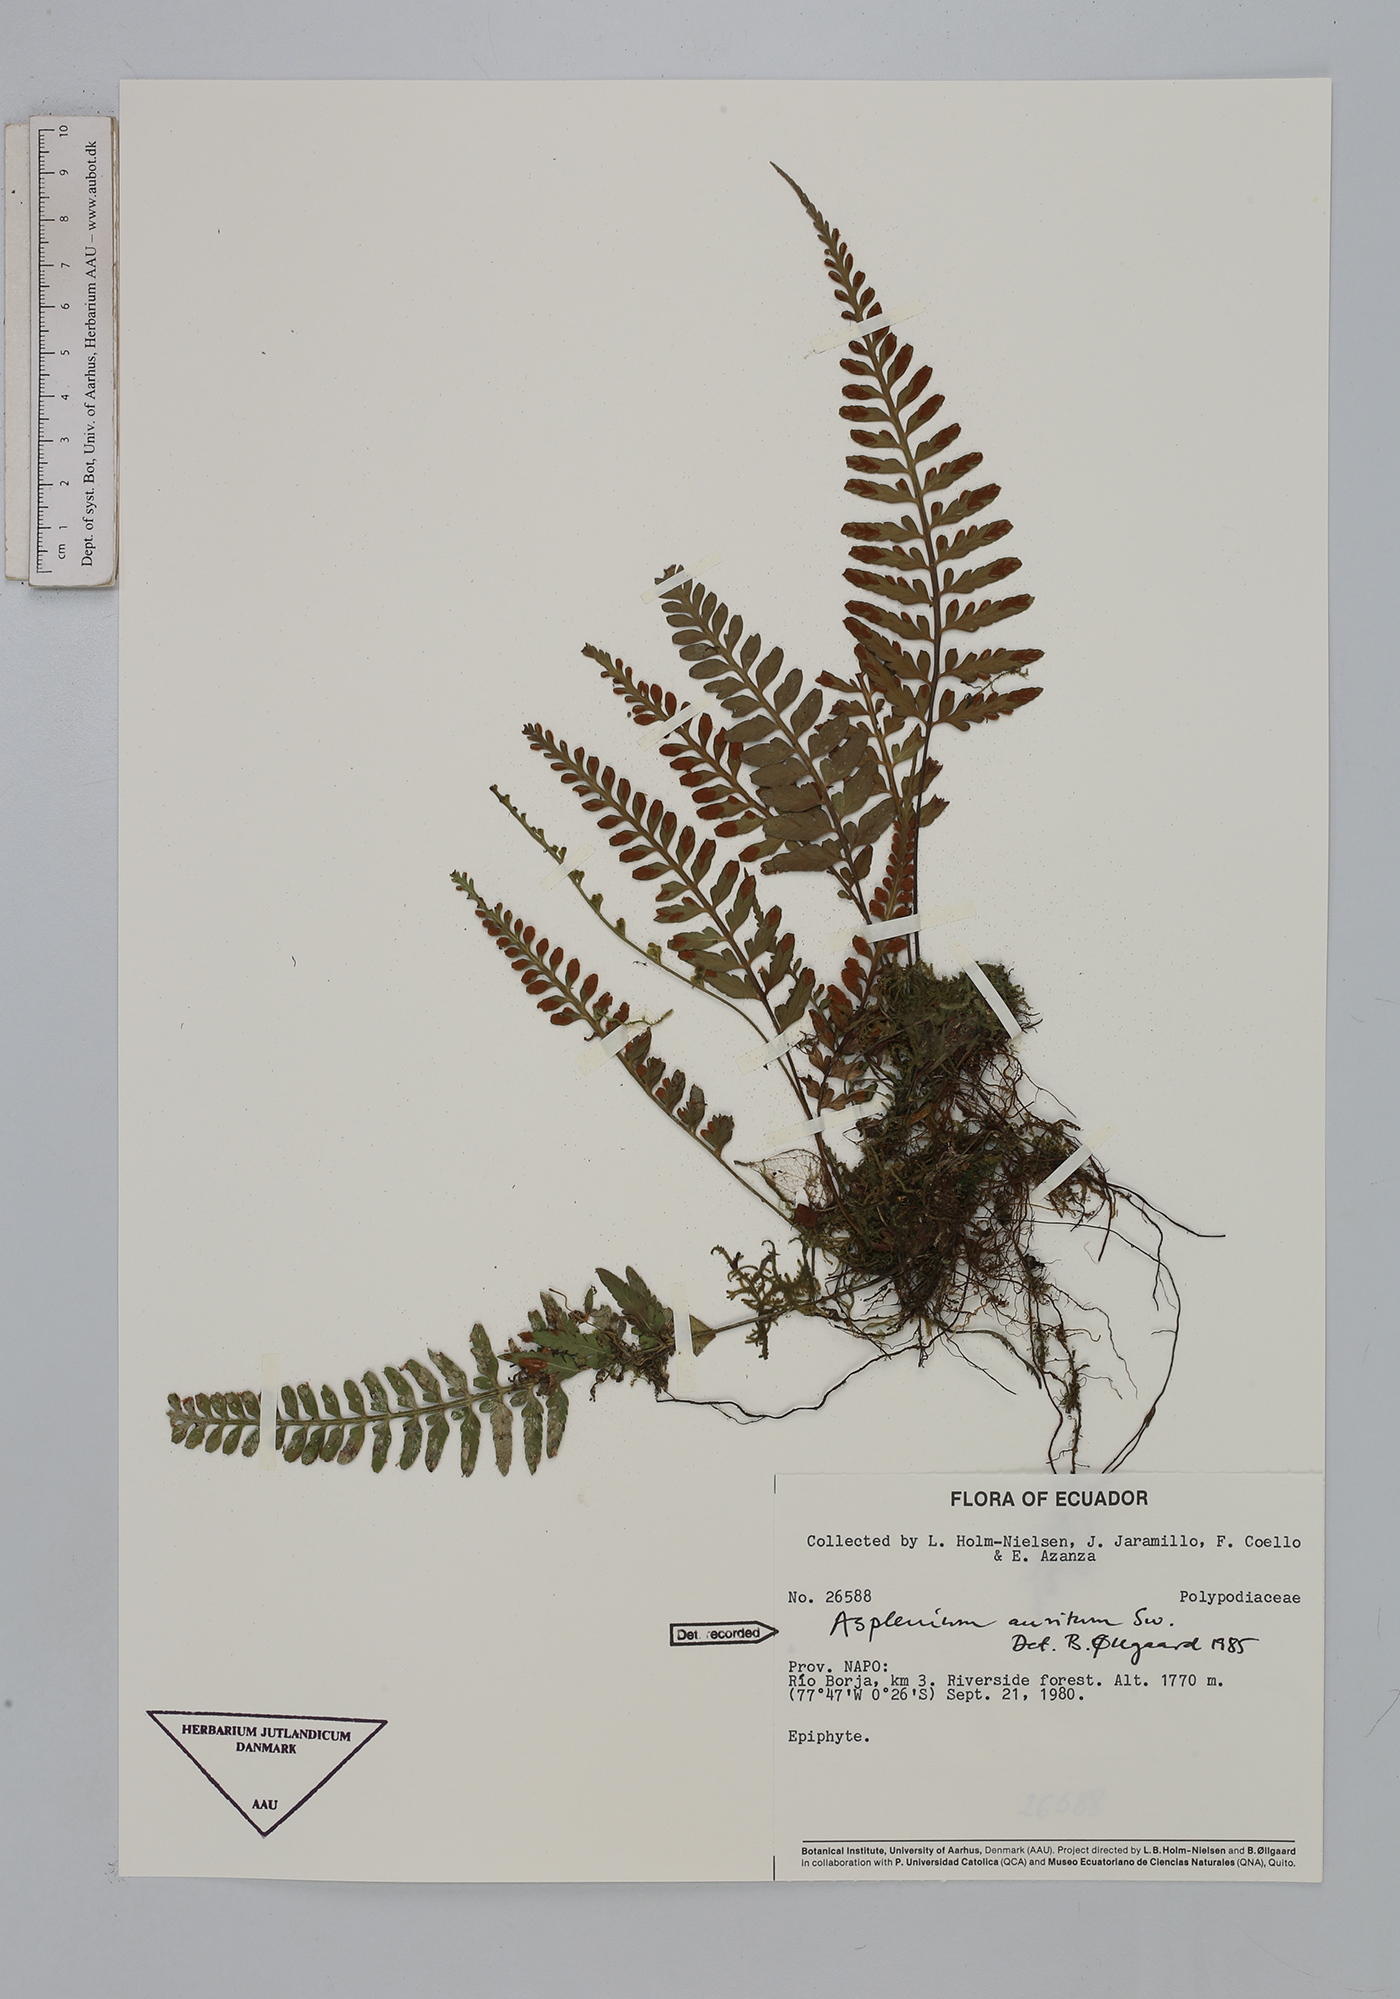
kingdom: Plantae
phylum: Tracheophyta
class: Polypodiopsida
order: Polypodiales
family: Aspleniaceae
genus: Asplenium
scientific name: Asplenium auritum
